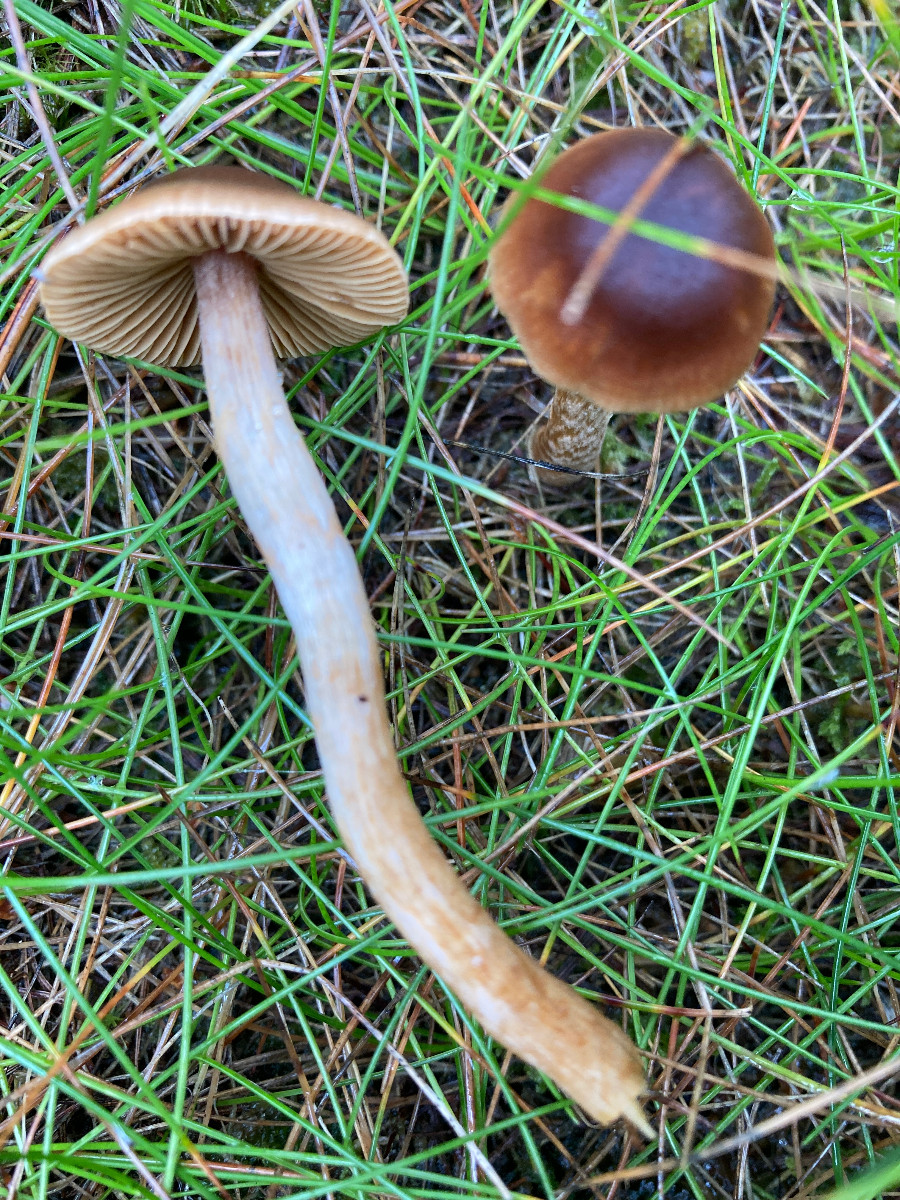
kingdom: Fungi
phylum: Basidiomycota
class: Agaricomycetes
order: Agaricales
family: Cortinariaceae
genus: Cortinarius
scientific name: Cortinarius
